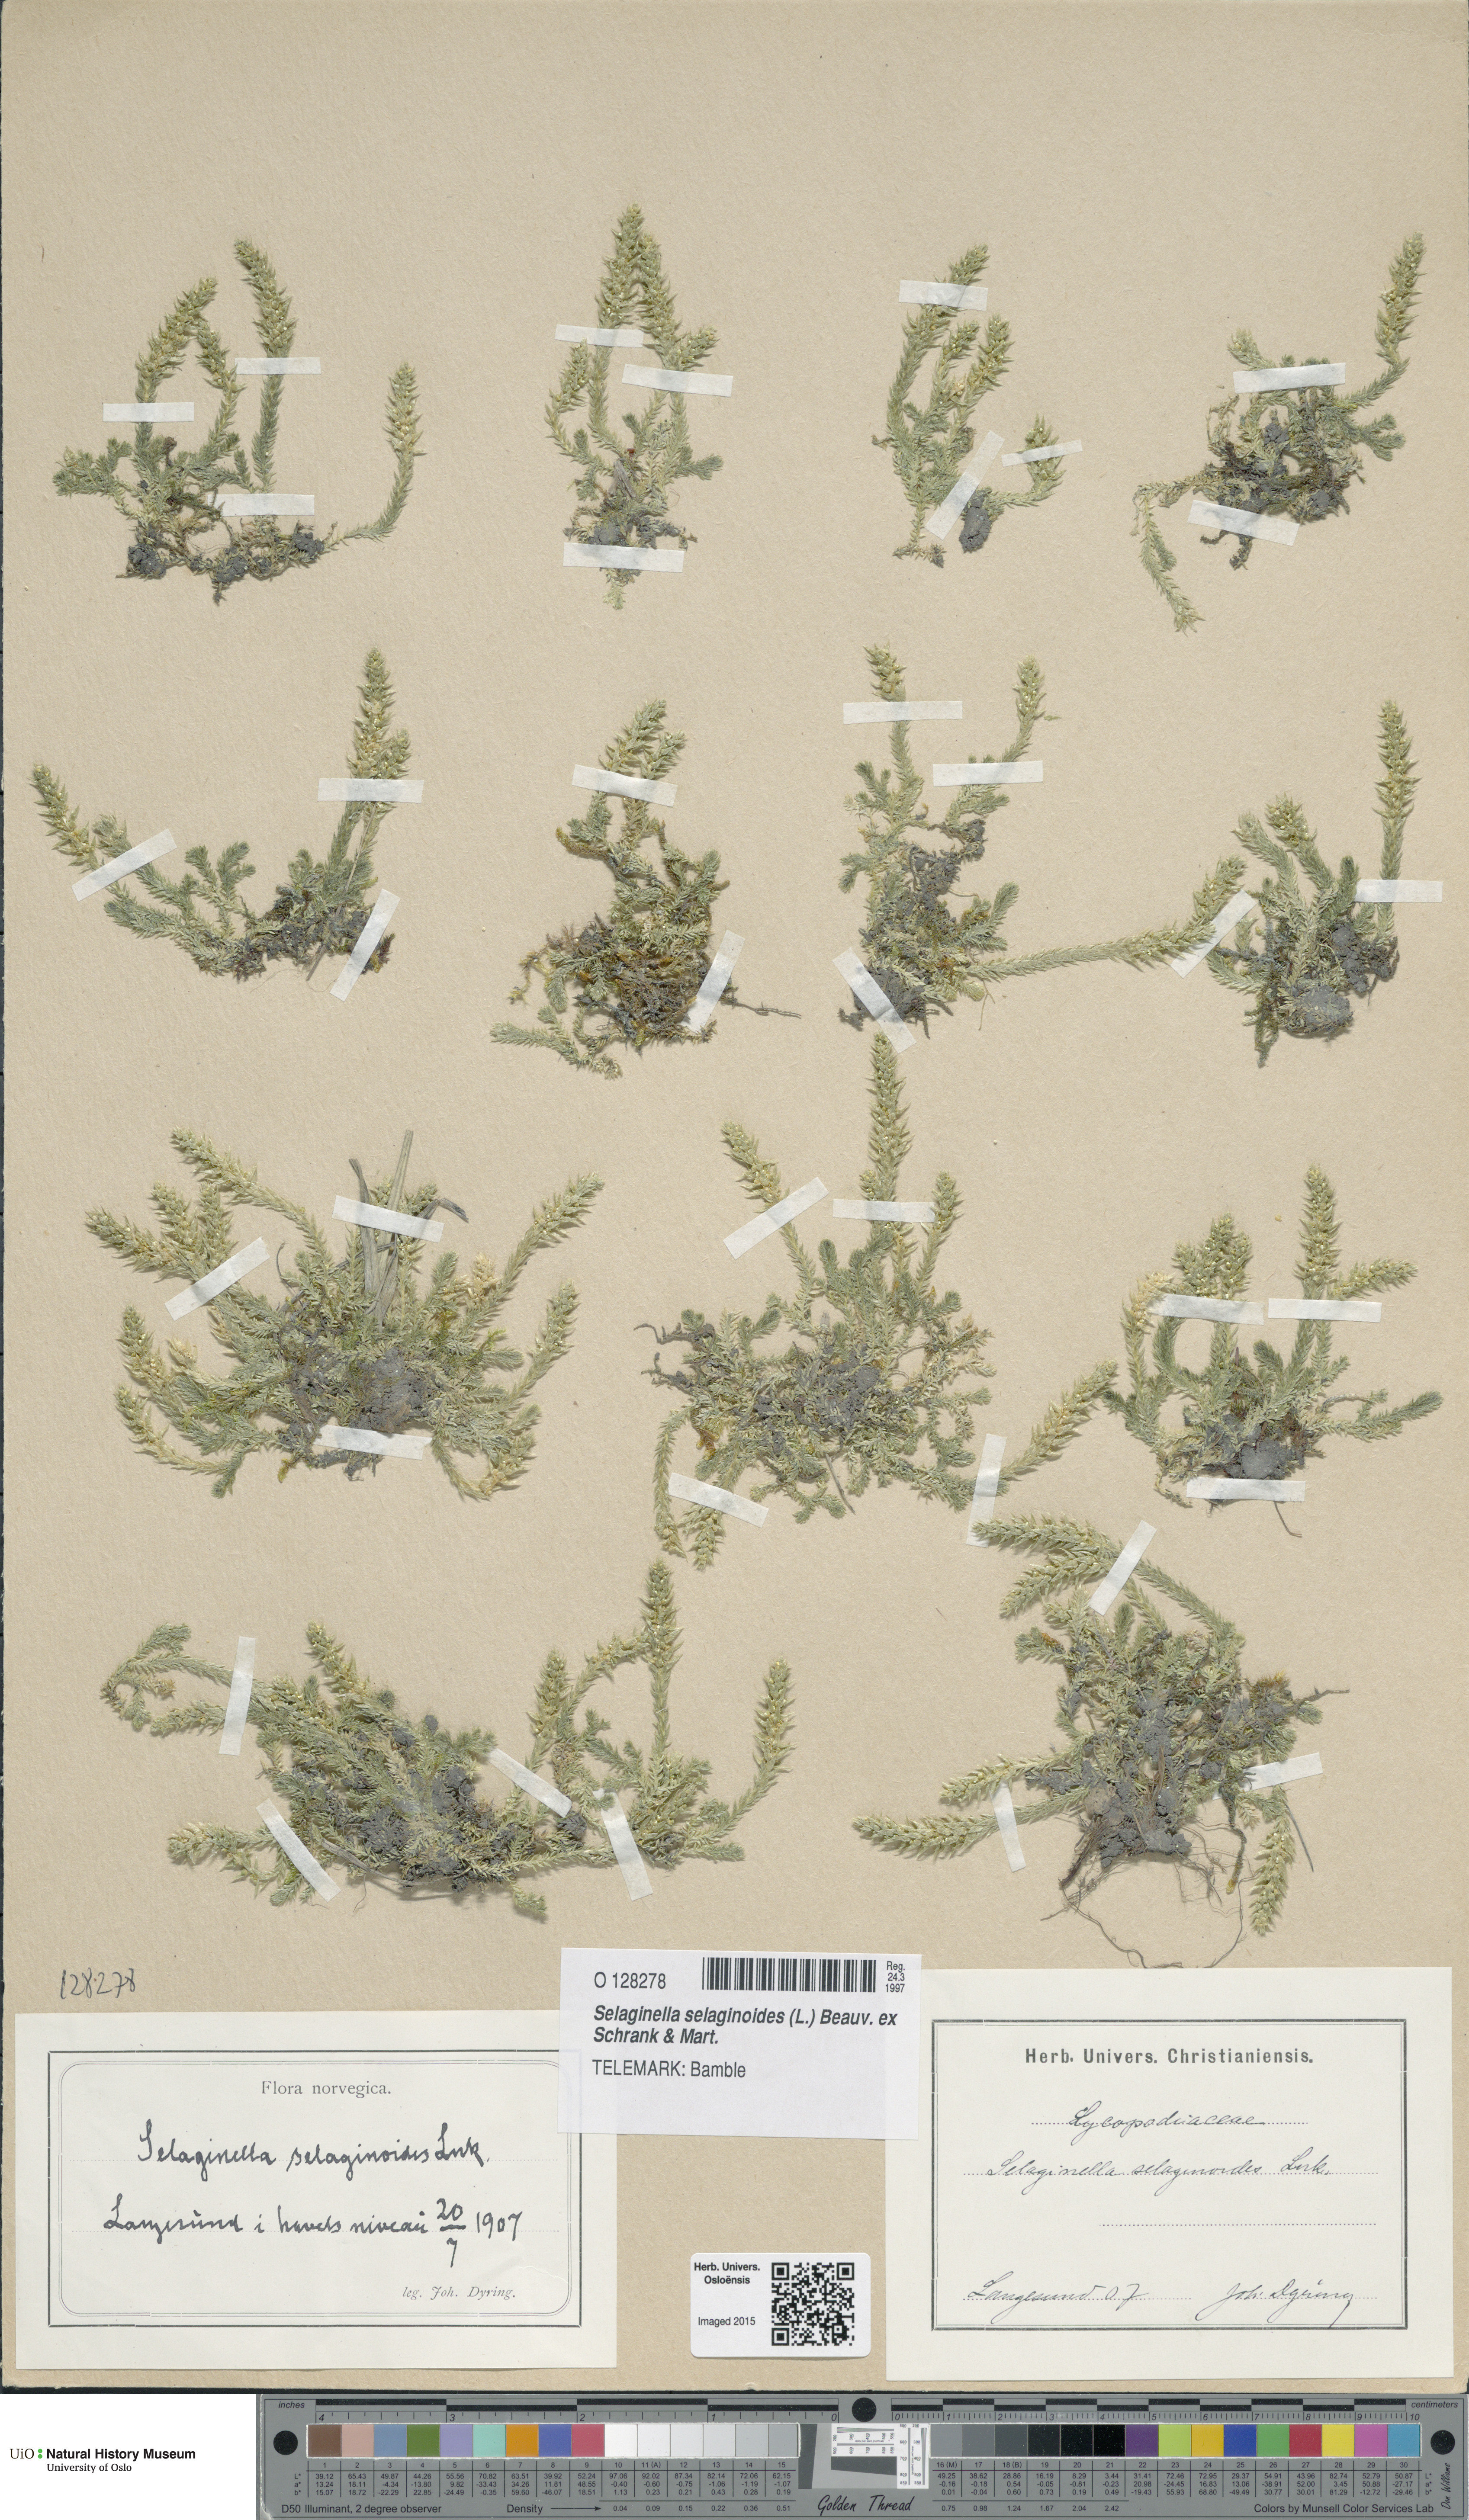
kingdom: Plantae
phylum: Tracheophyta
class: Lycopodiopsida
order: Selaginellales
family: Selaginellaceae
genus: Selaginella
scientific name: Selaginella selaginoides
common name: Prickly mountain-moss
